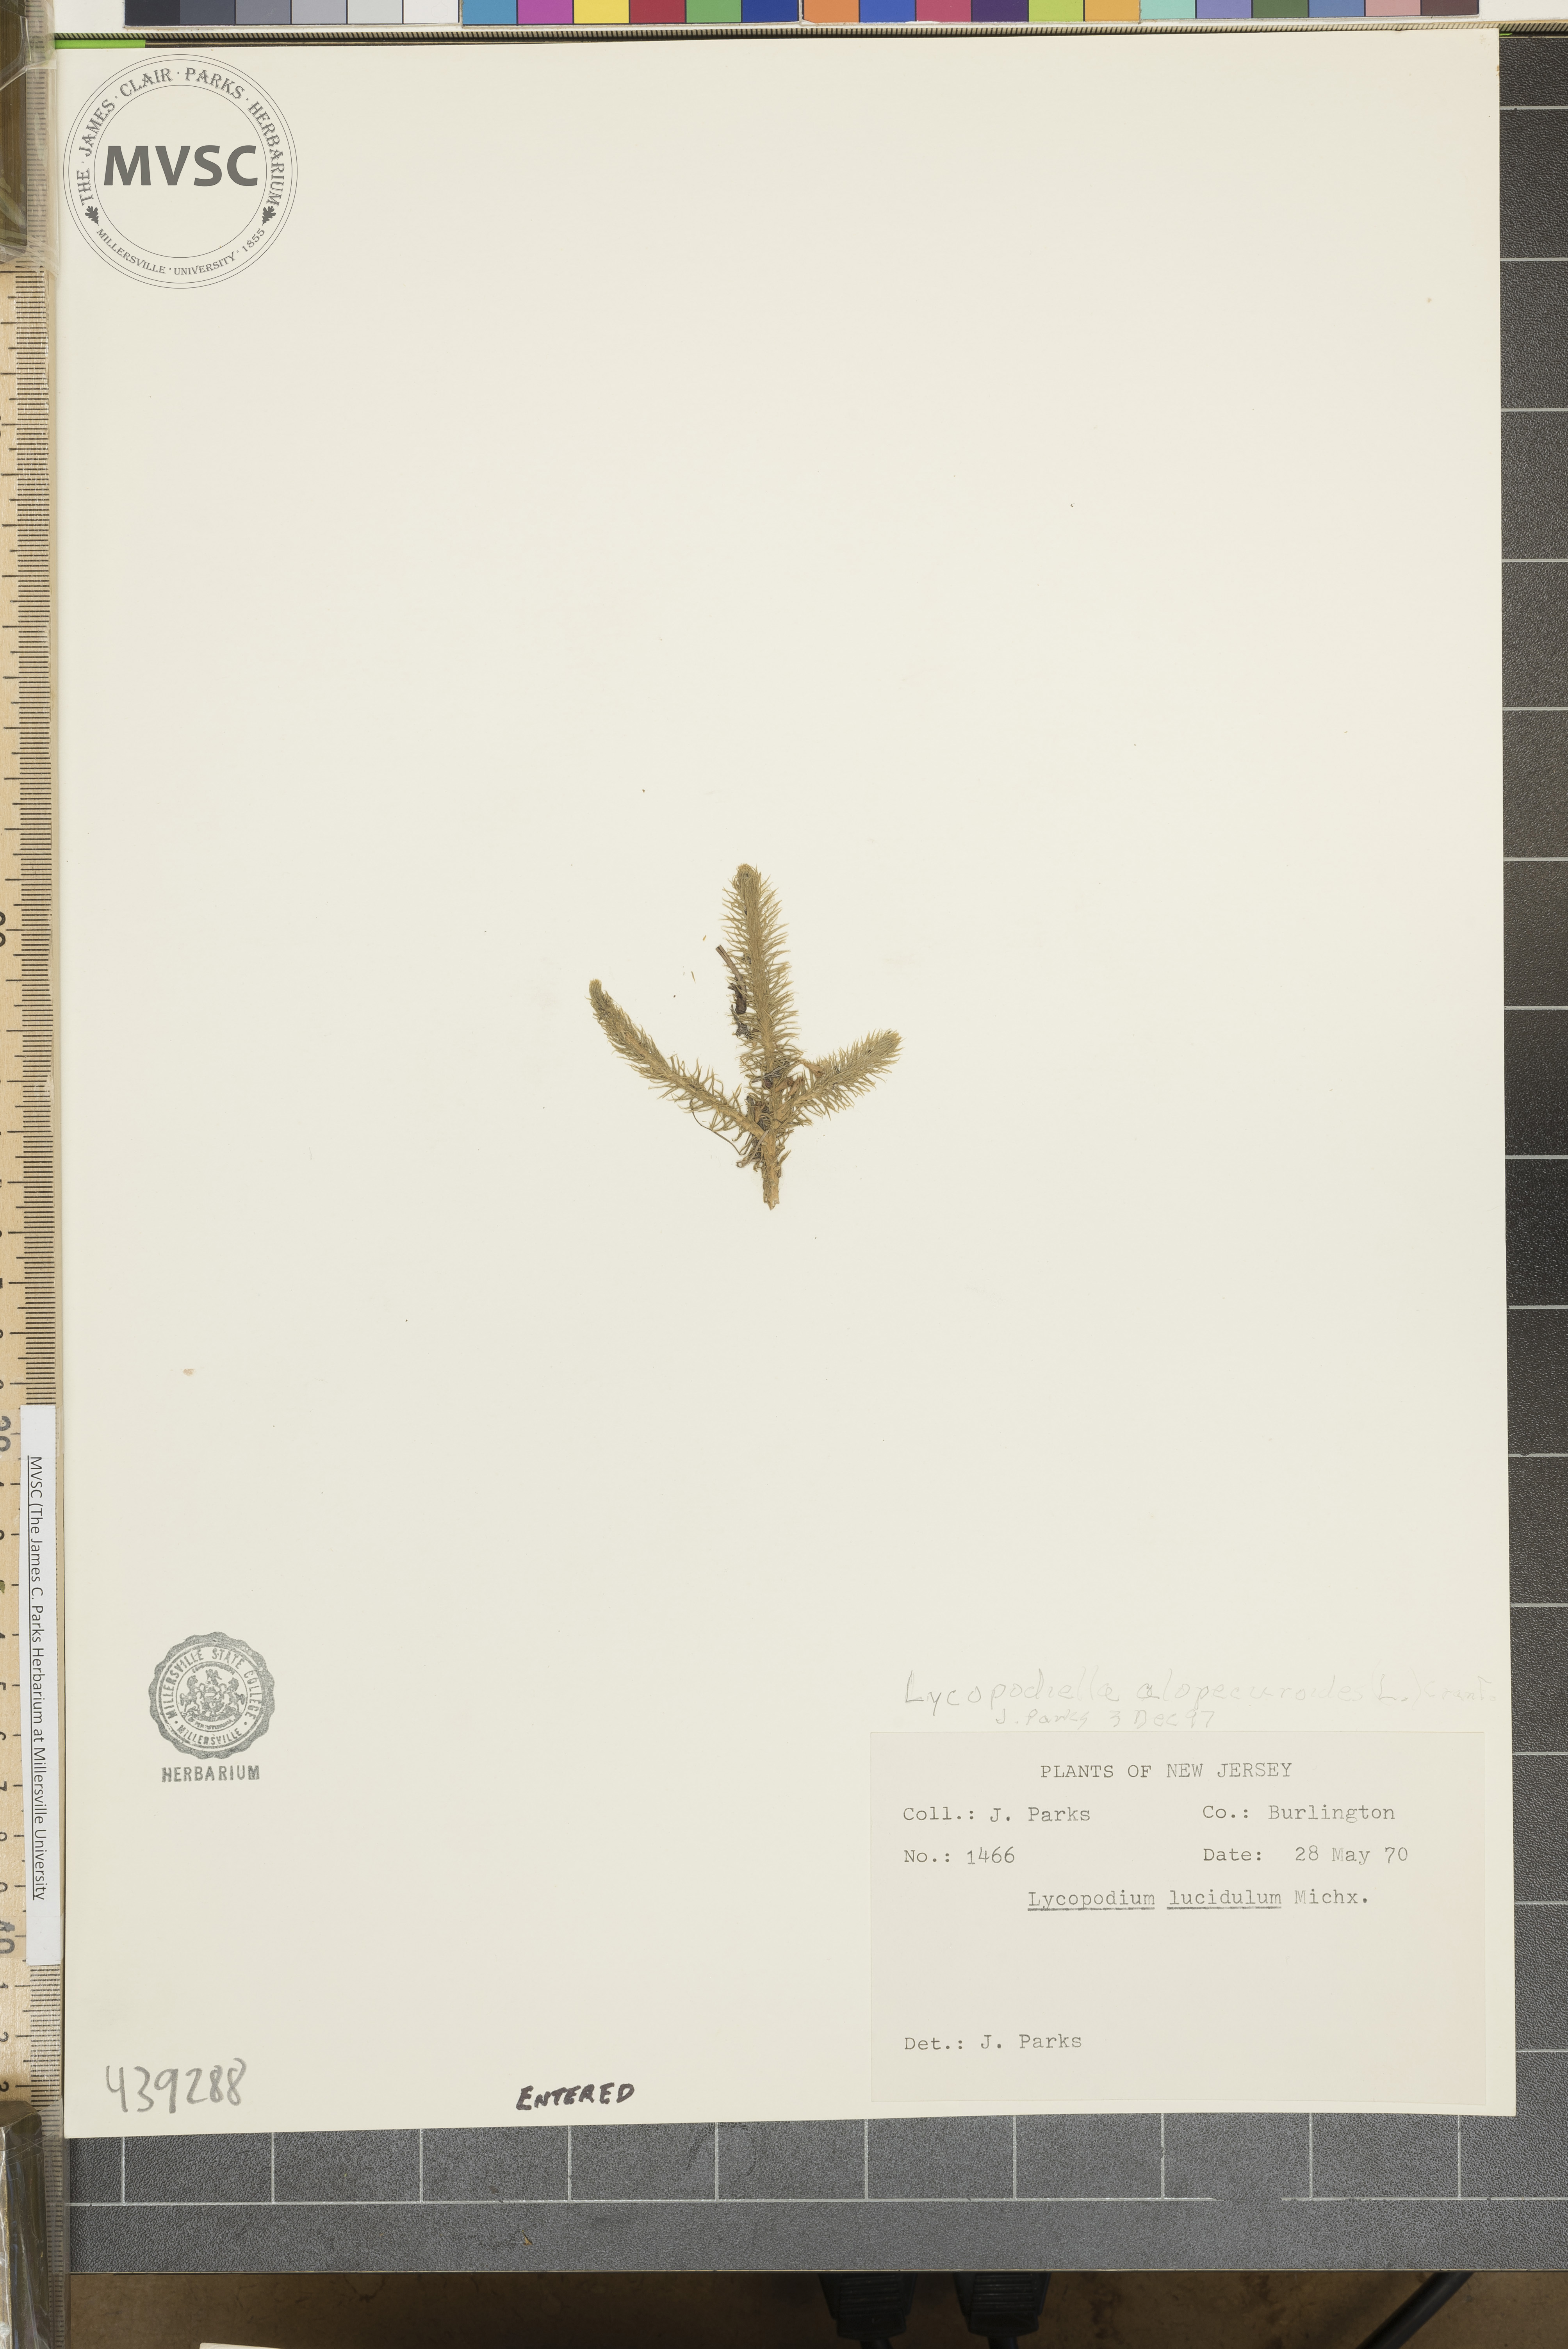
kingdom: Plantae
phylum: Tracheophyta
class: Lycopodiopsida
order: Lycopodiales
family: Lycopodiaceae
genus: Lycopodiella
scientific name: Lycopodiella alopecuroides
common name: Clubmoss
